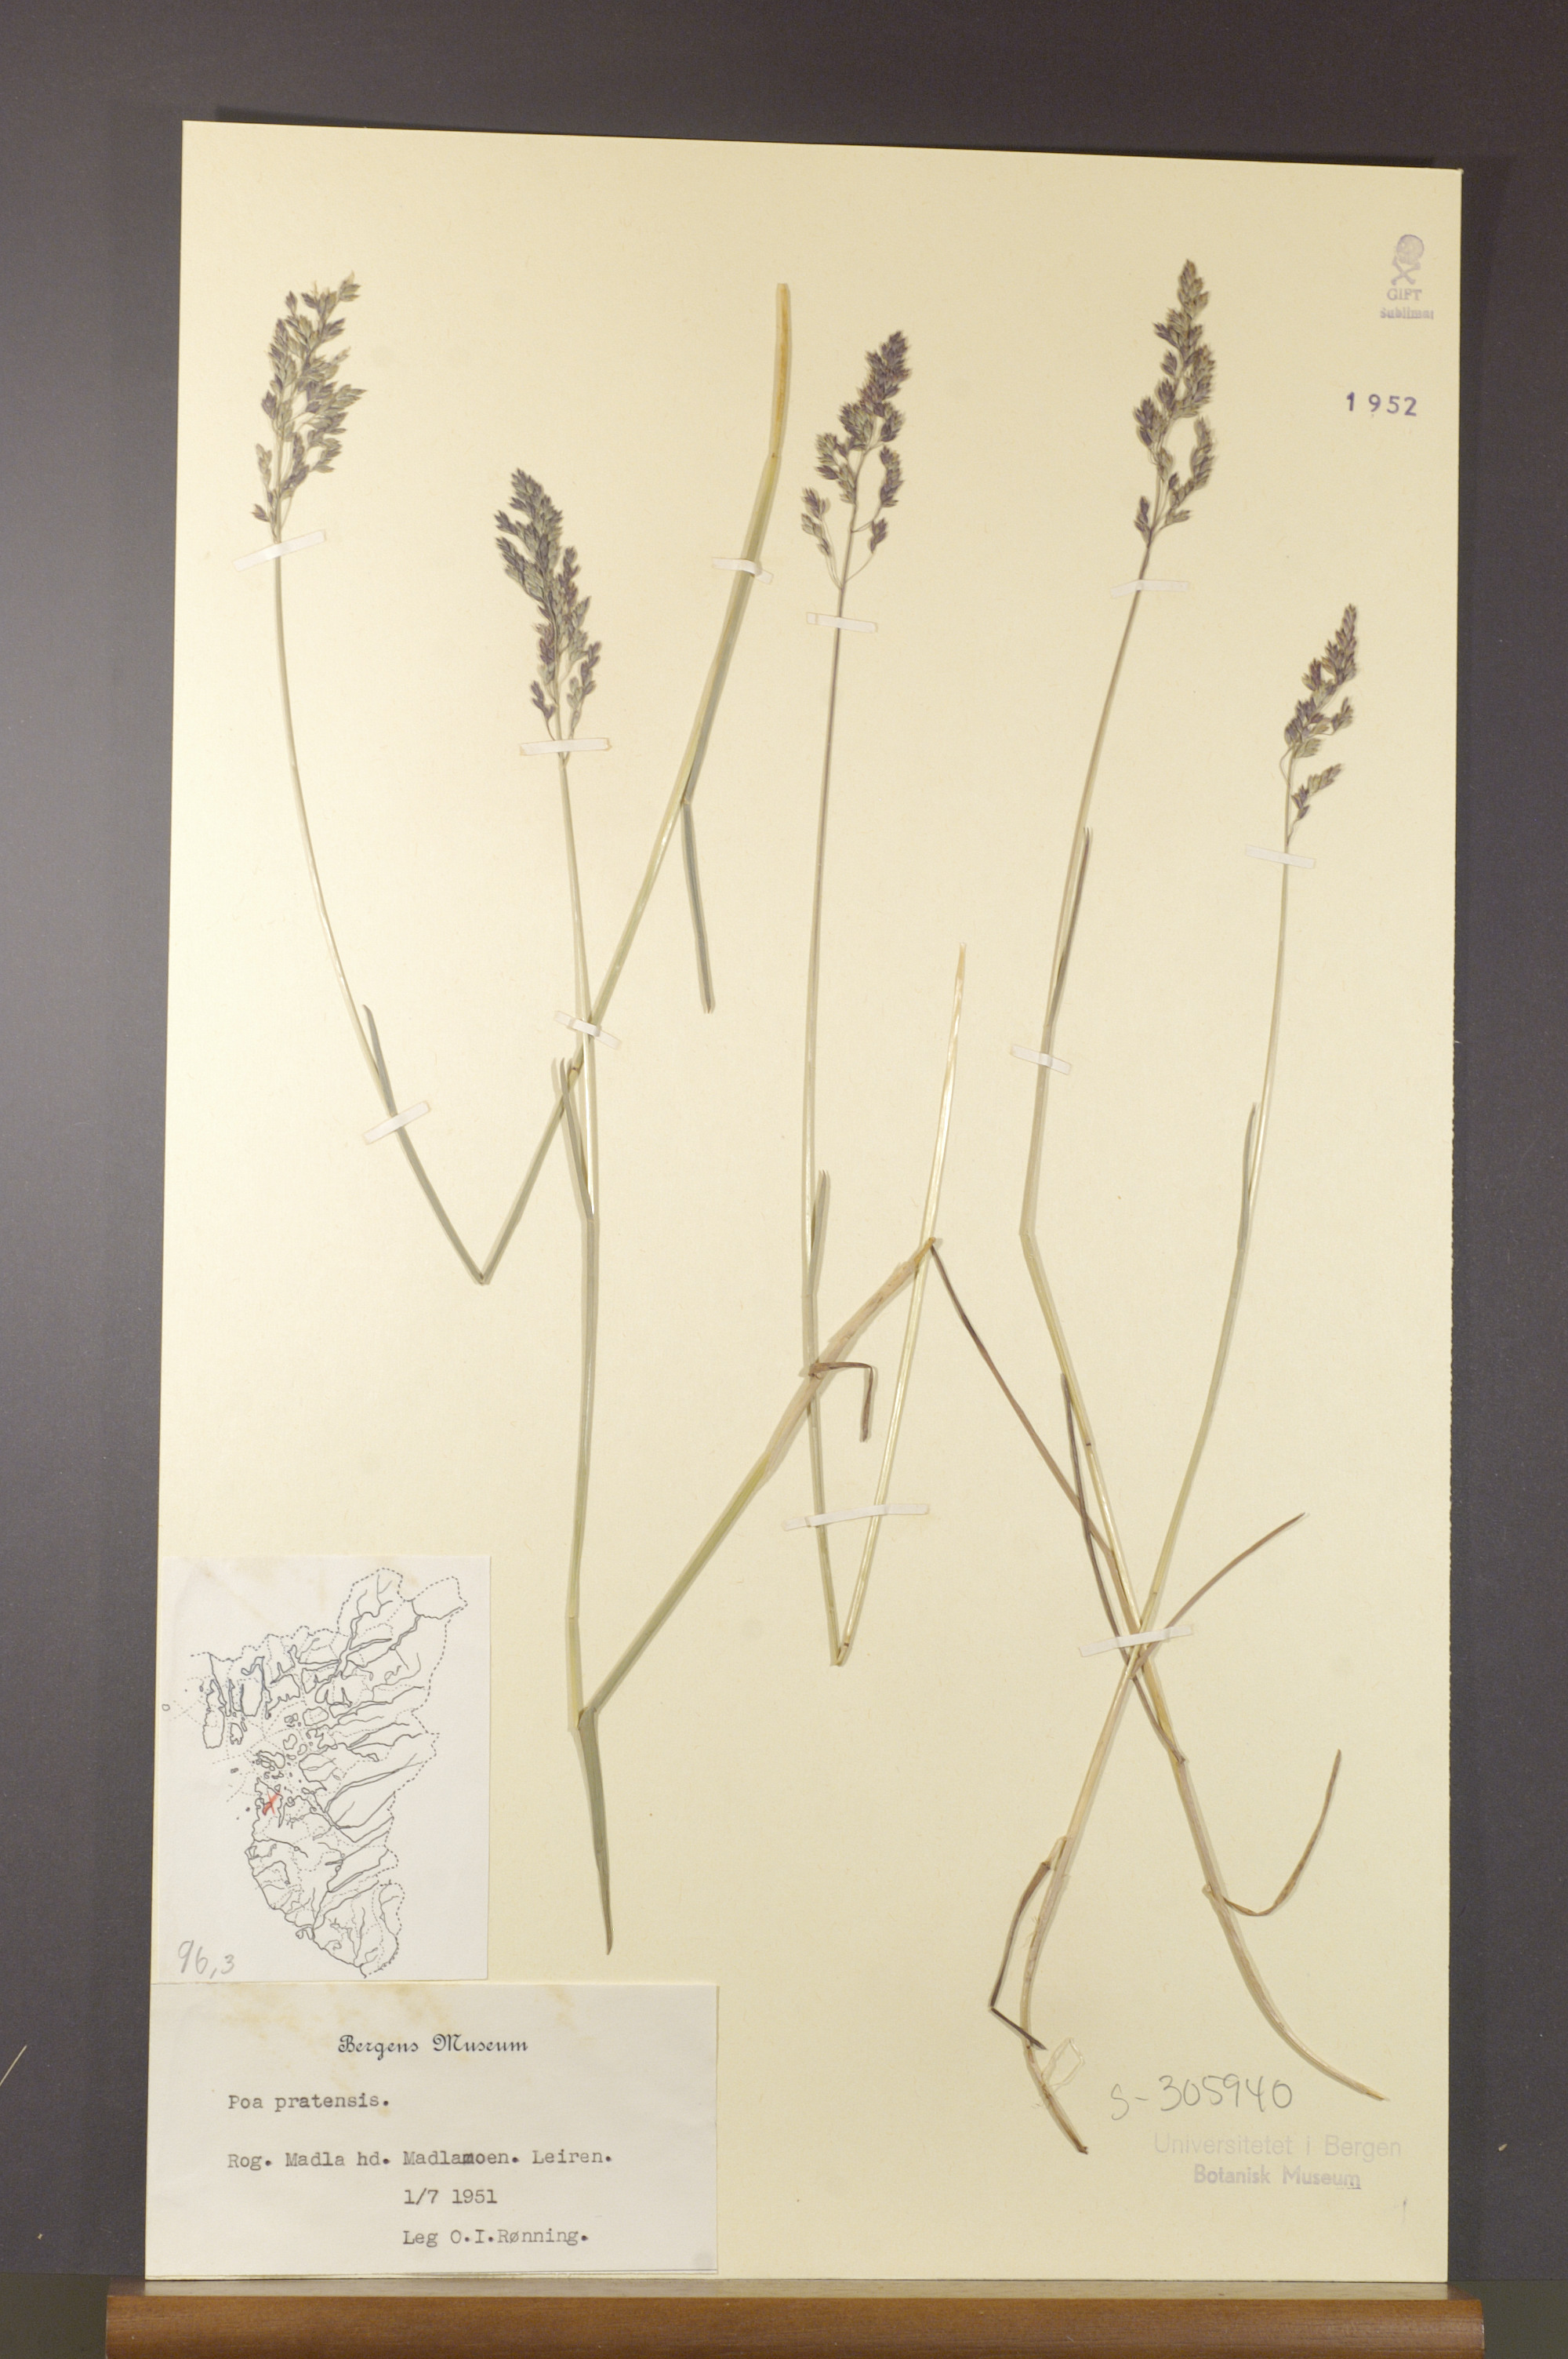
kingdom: Plantae
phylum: Tracheophyta
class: Liliopsida
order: Poales
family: Poaceae
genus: Poa
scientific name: Poa pratensis
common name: Kentucky bluegrass
